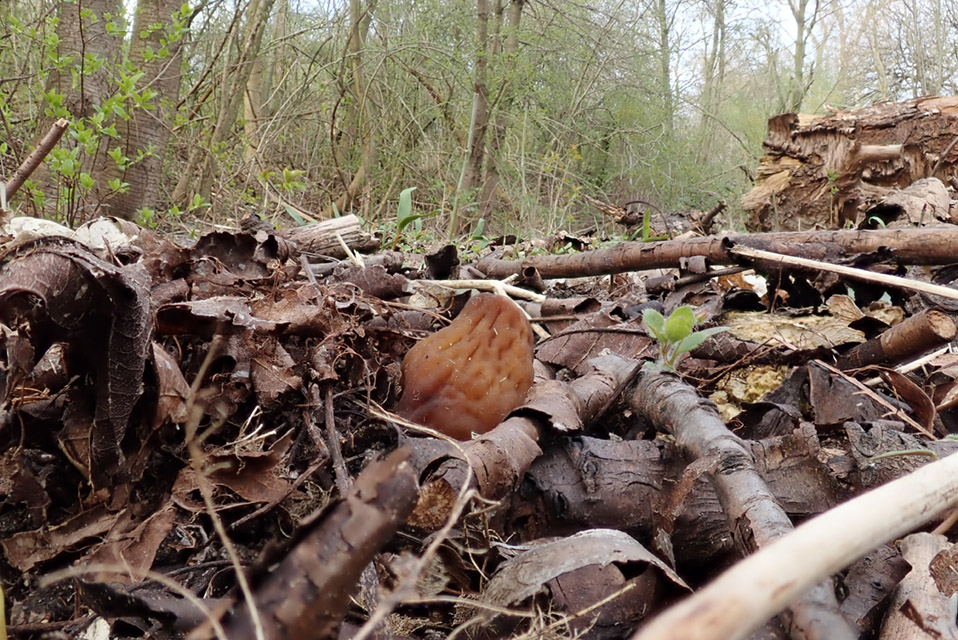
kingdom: Fungi
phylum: Ascomycota
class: Pezizomycetes
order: Pezizales
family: Morchellaceae
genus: Verpa
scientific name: Verpa conica
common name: glat klokkemorkel
